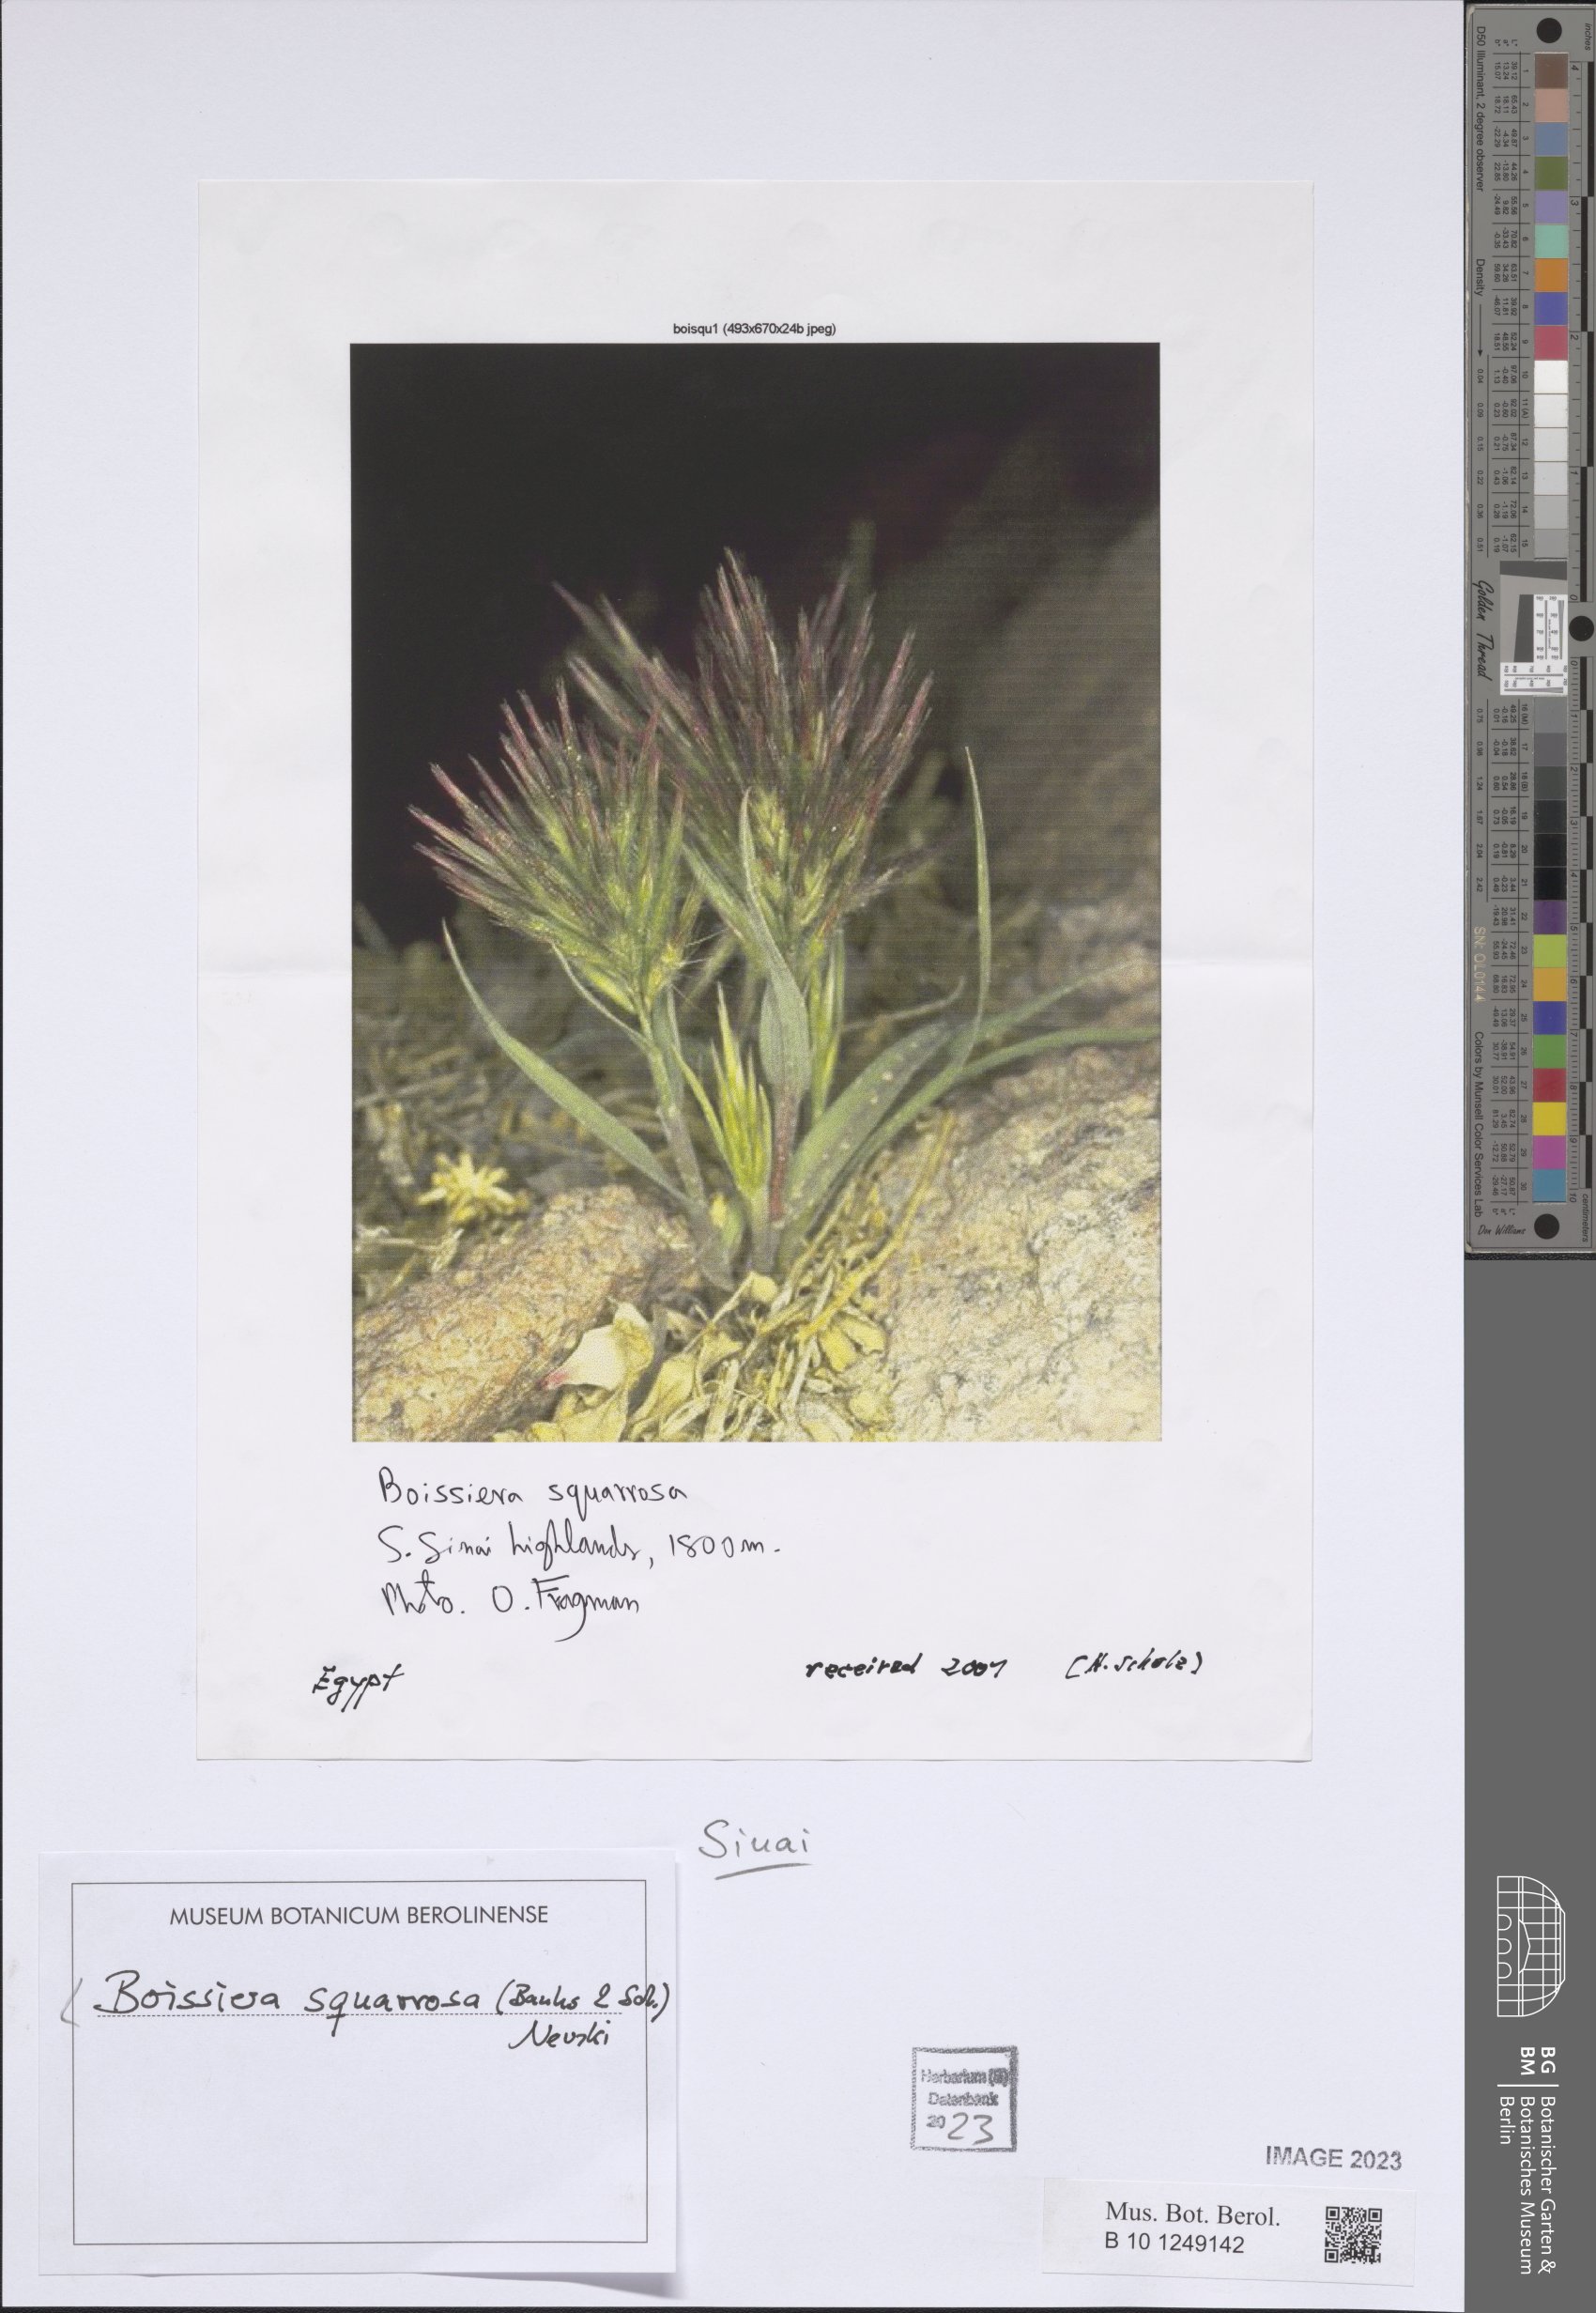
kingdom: Plantae
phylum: Tracheophyta
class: Liliopsida
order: Poales
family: Poaceae
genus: Bromus
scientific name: Bromus pumilio
